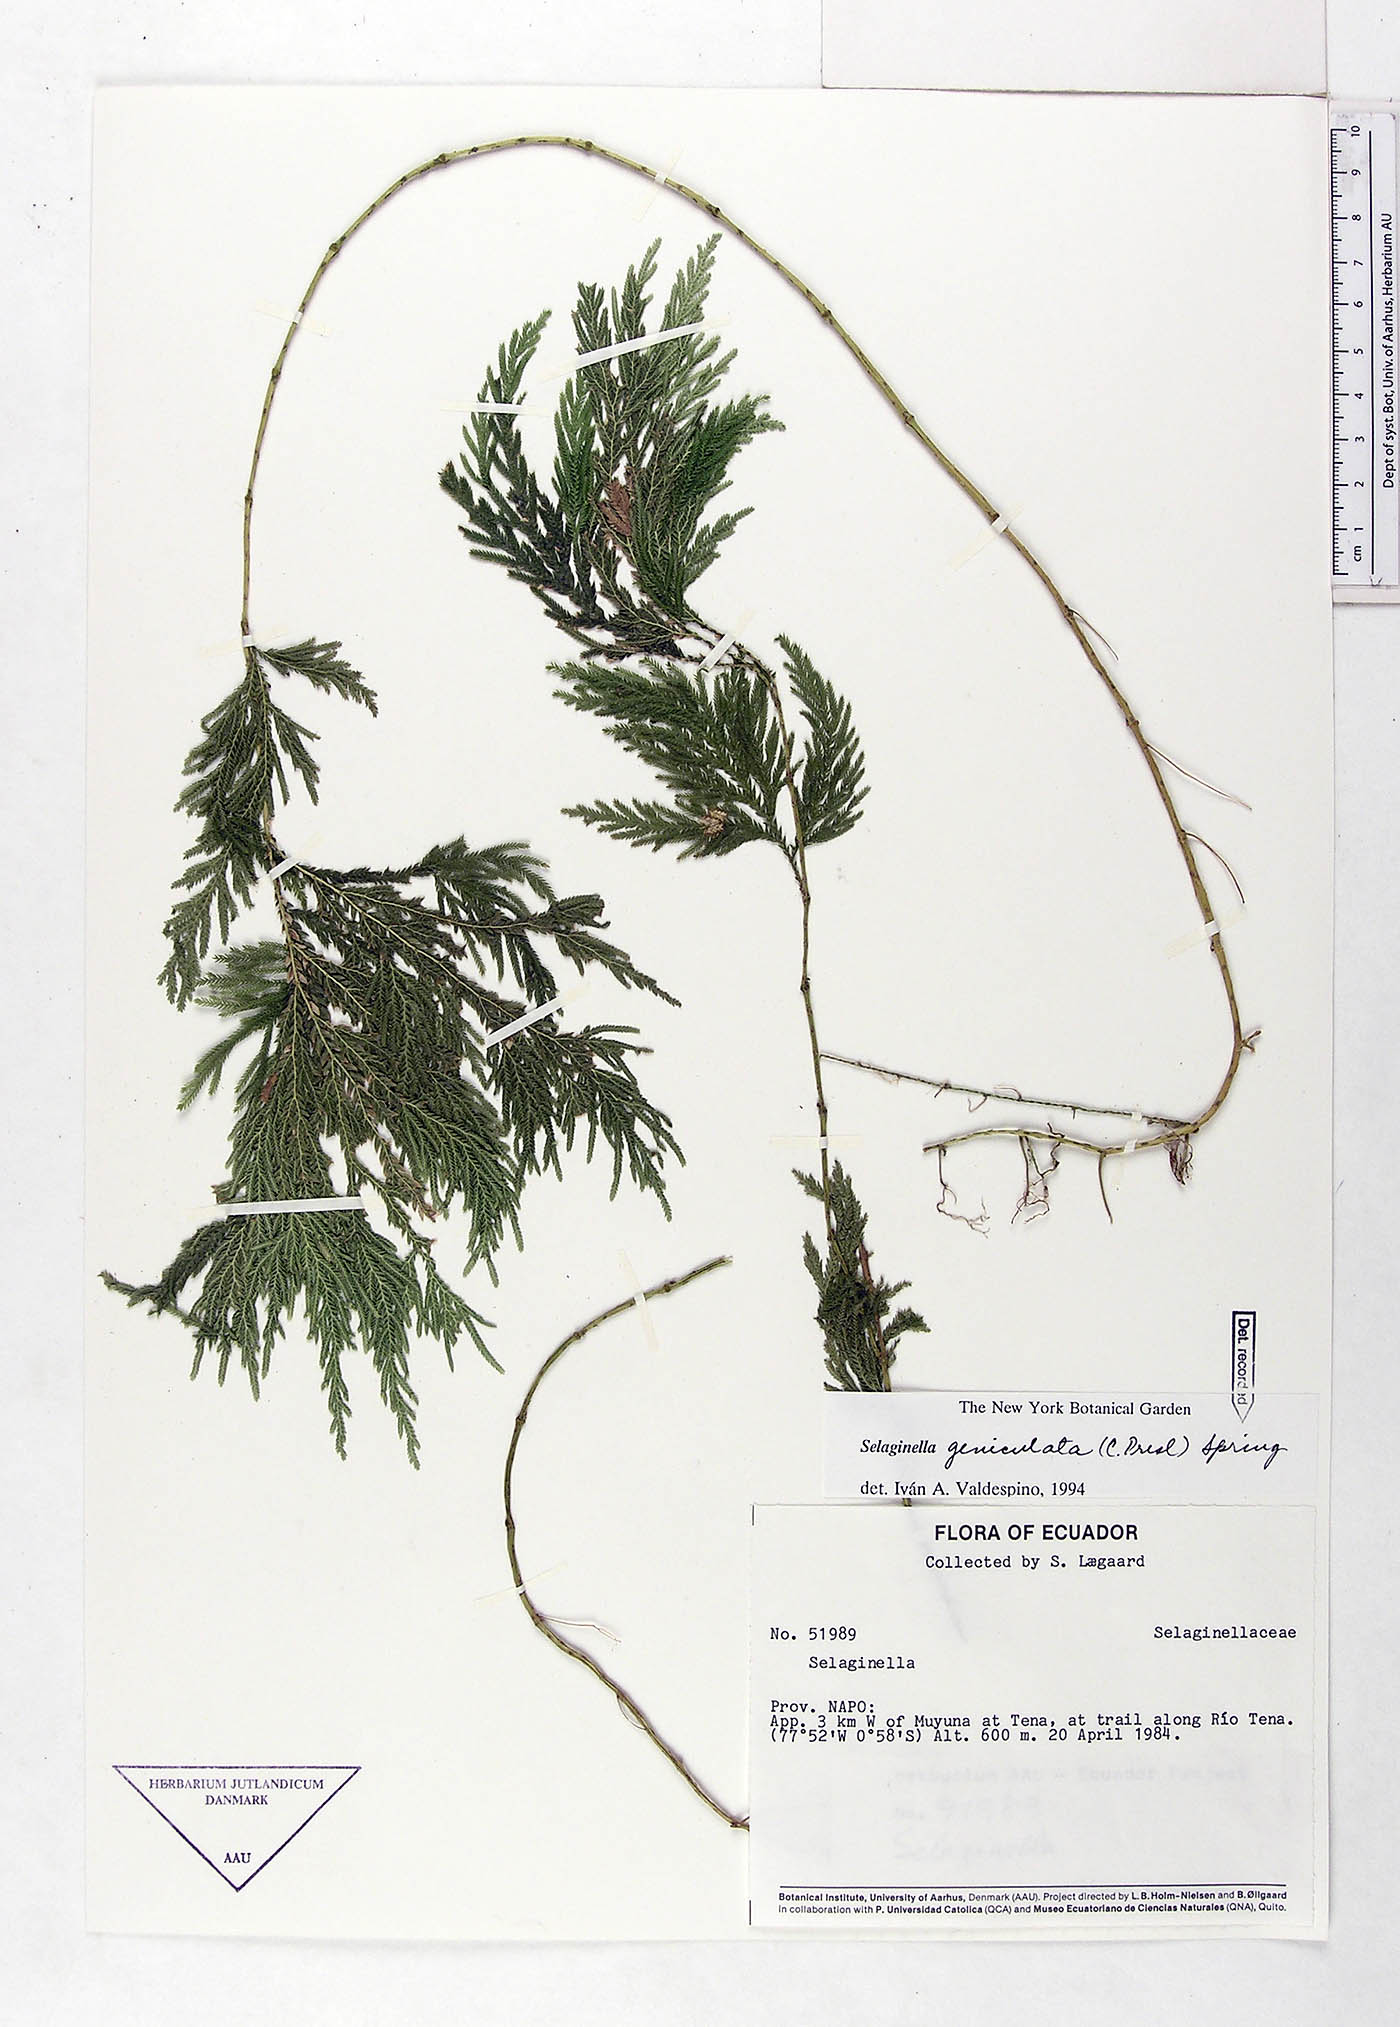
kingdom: Plantae
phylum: Tracheophyta
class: Lycopodiopsida
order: Selaginellales
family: Selaginellaceae
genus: Selaginella
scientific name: Selaginella geniculata
